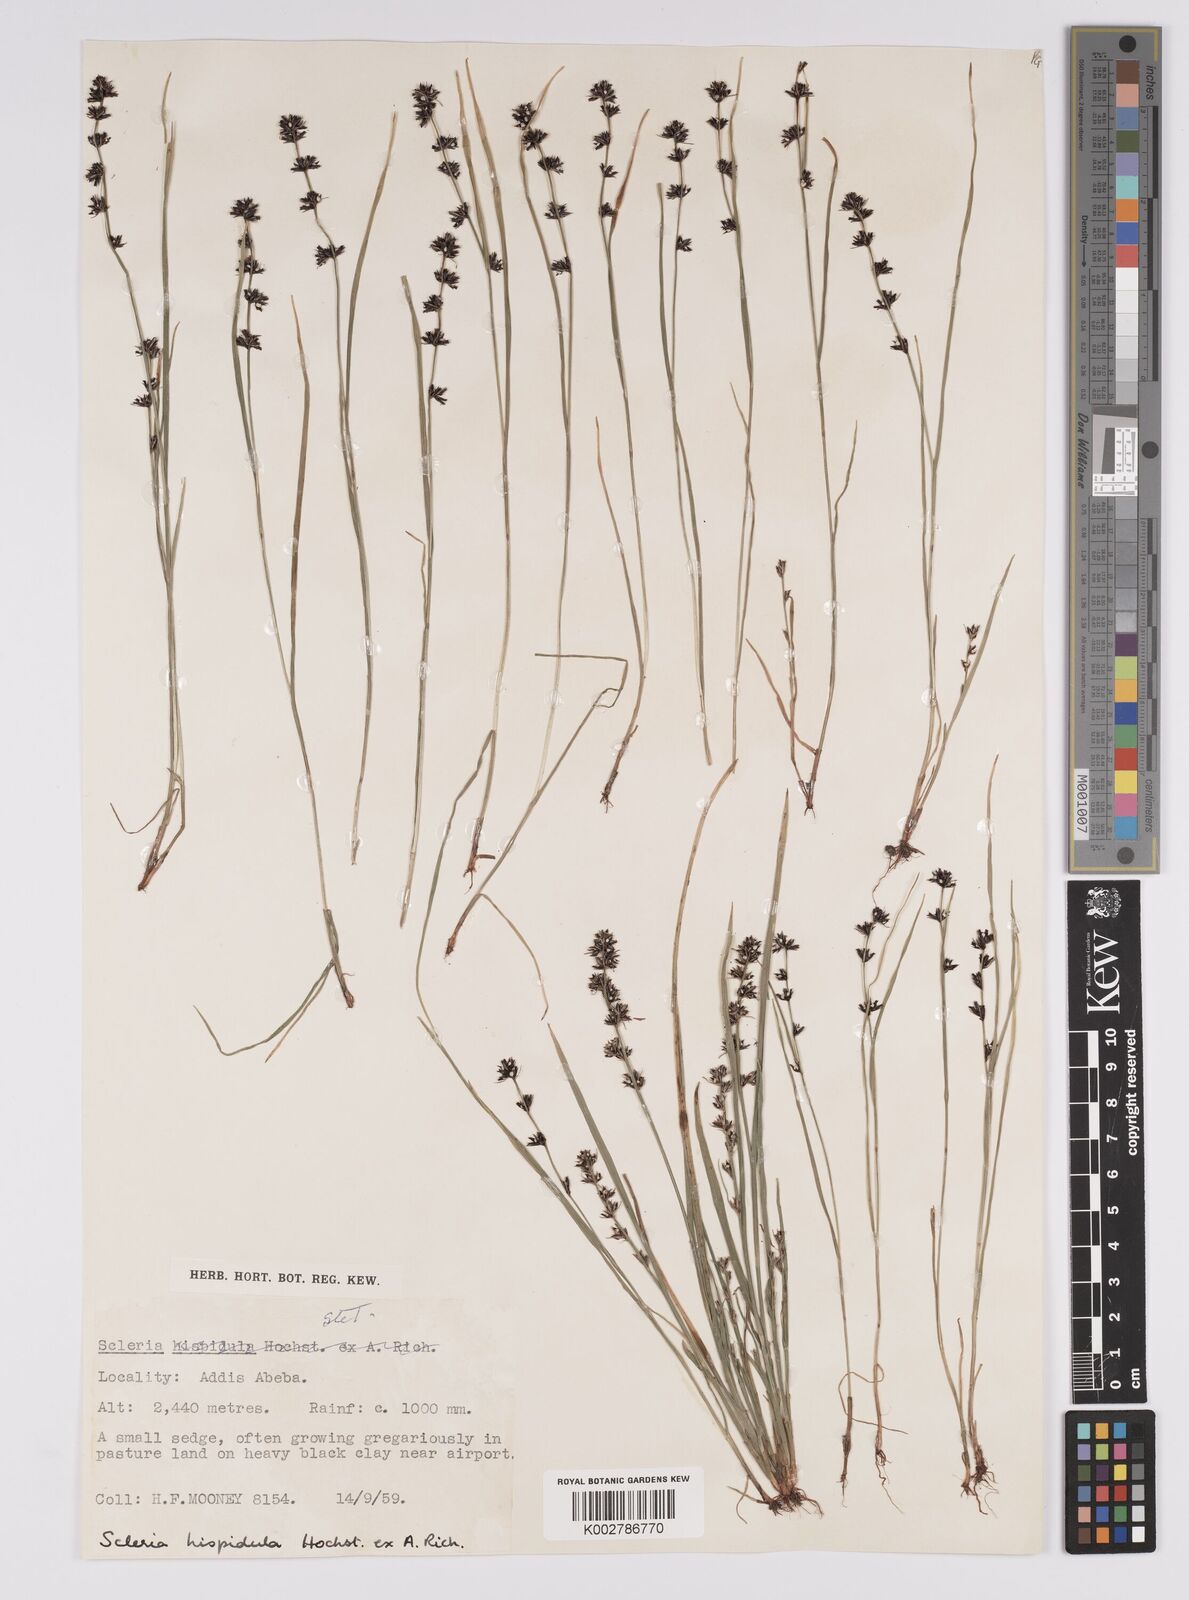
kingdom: Plantae
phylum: Tracheophyta
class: Liliopsida
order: Poales
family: Cyperaceae
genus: Scleria
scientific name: Scleria hispidula
